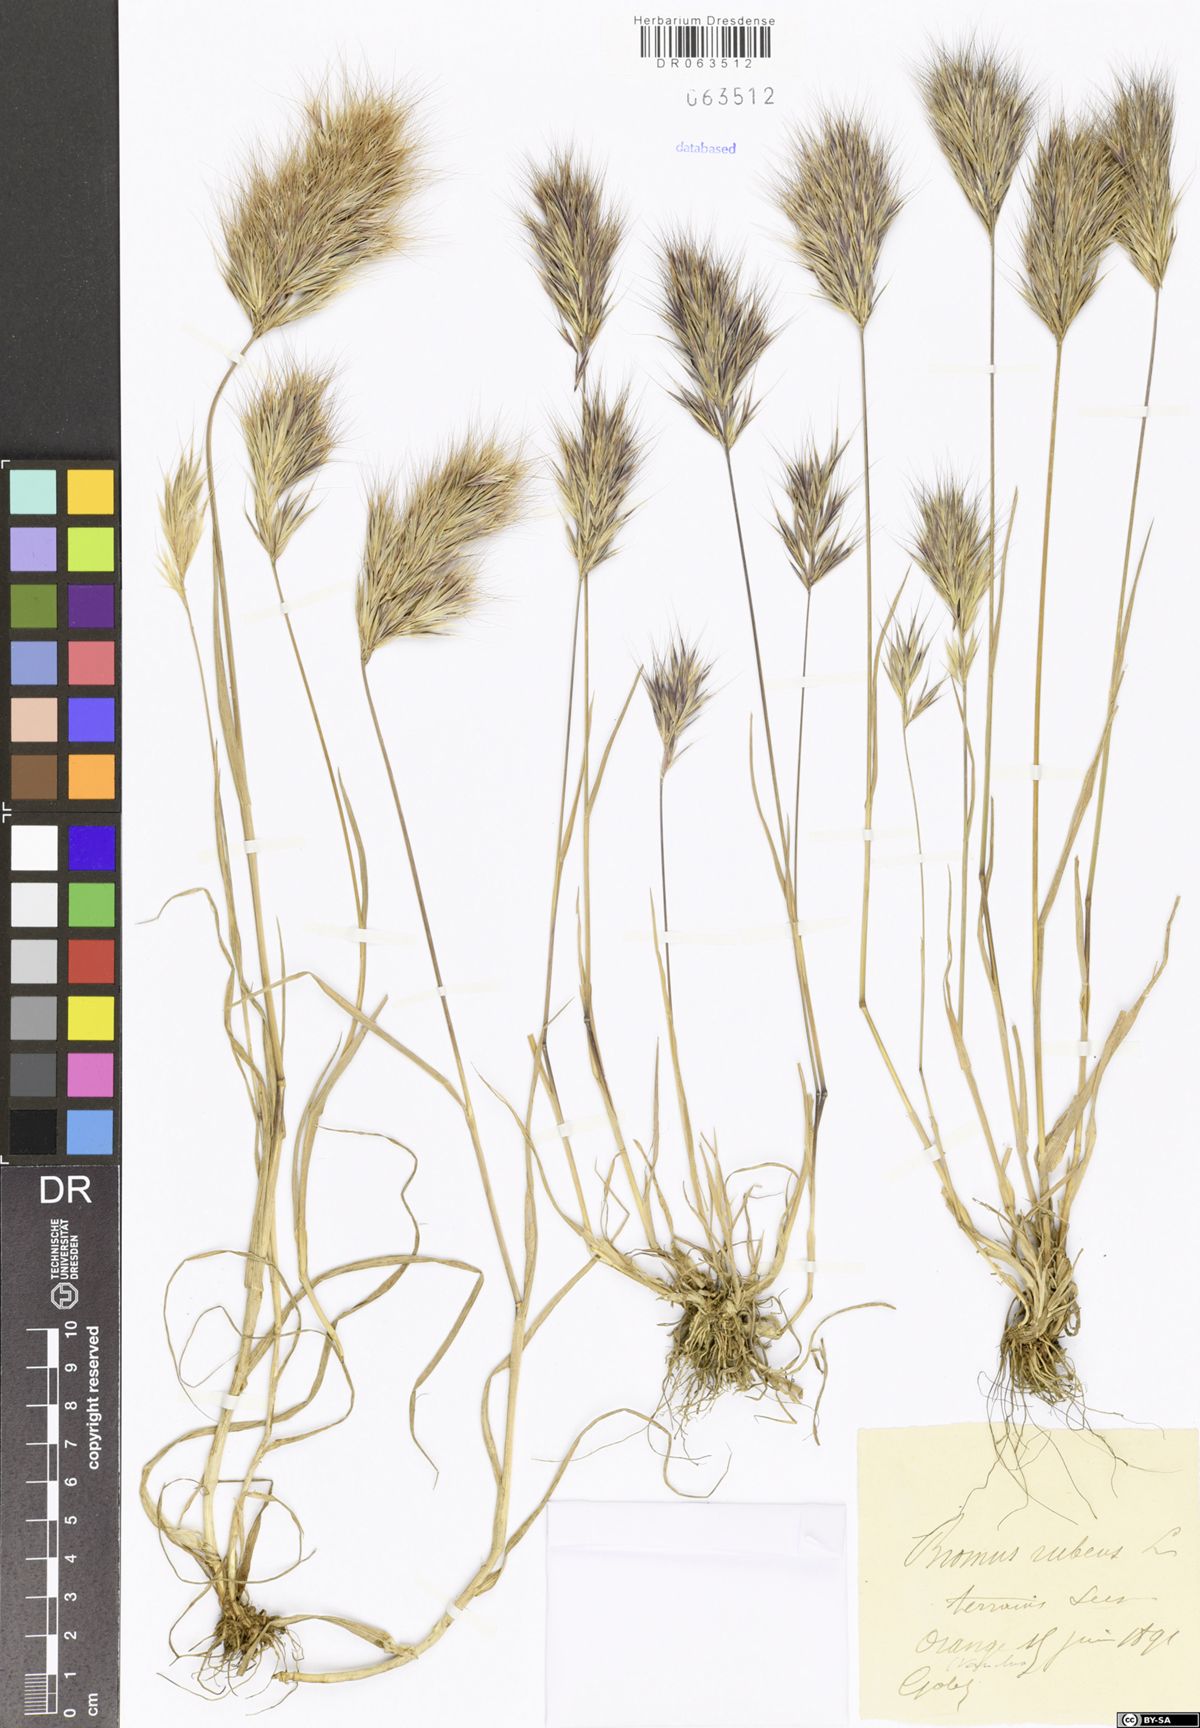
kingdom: Plantae
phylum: Tracheophyta
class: Liliopsida
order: Poales
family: Poaceae
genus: Bromus
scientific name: Bromus rubens
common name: Red brome
